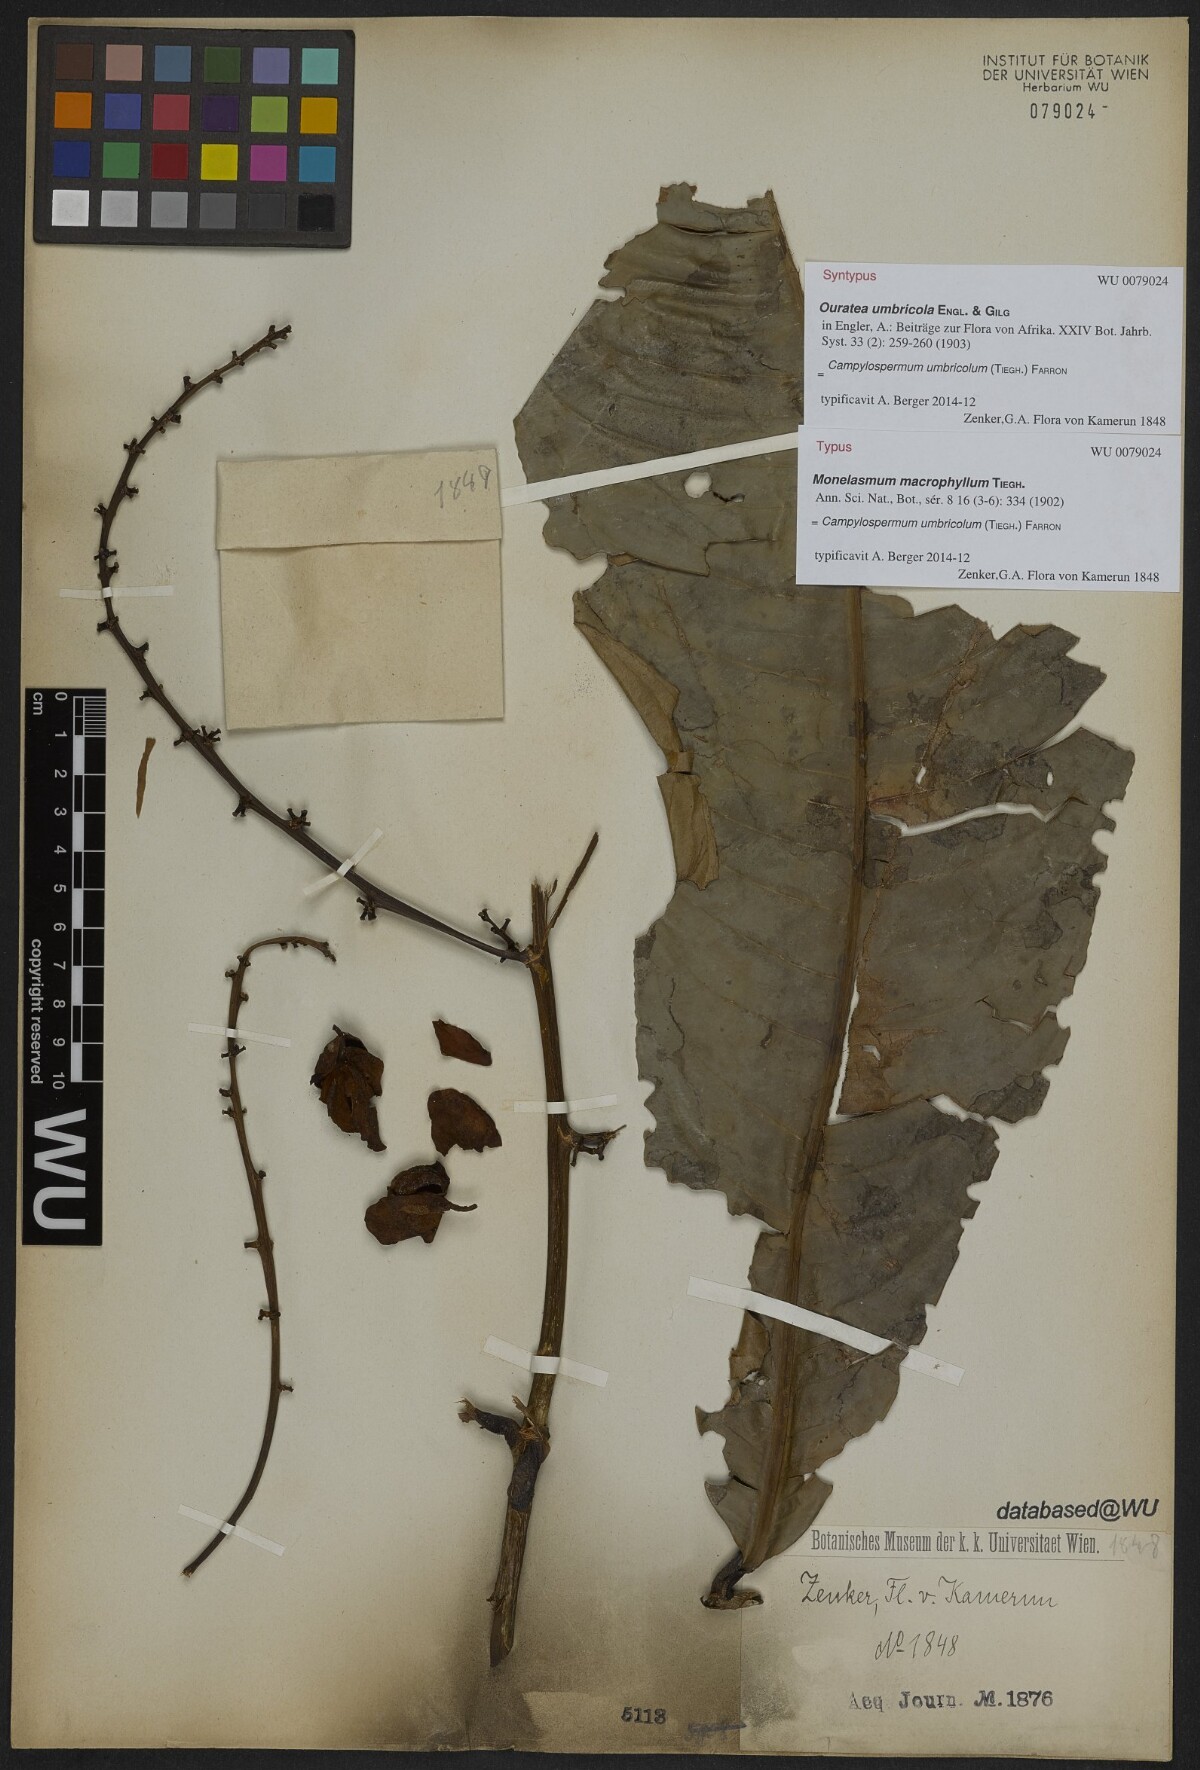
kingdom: Plantae
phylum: Tracheophyta
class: Magnoliopsida
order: Malpighiales
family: Ochnaceae
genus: Campylospermum
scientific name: Campylospermum umbricola
